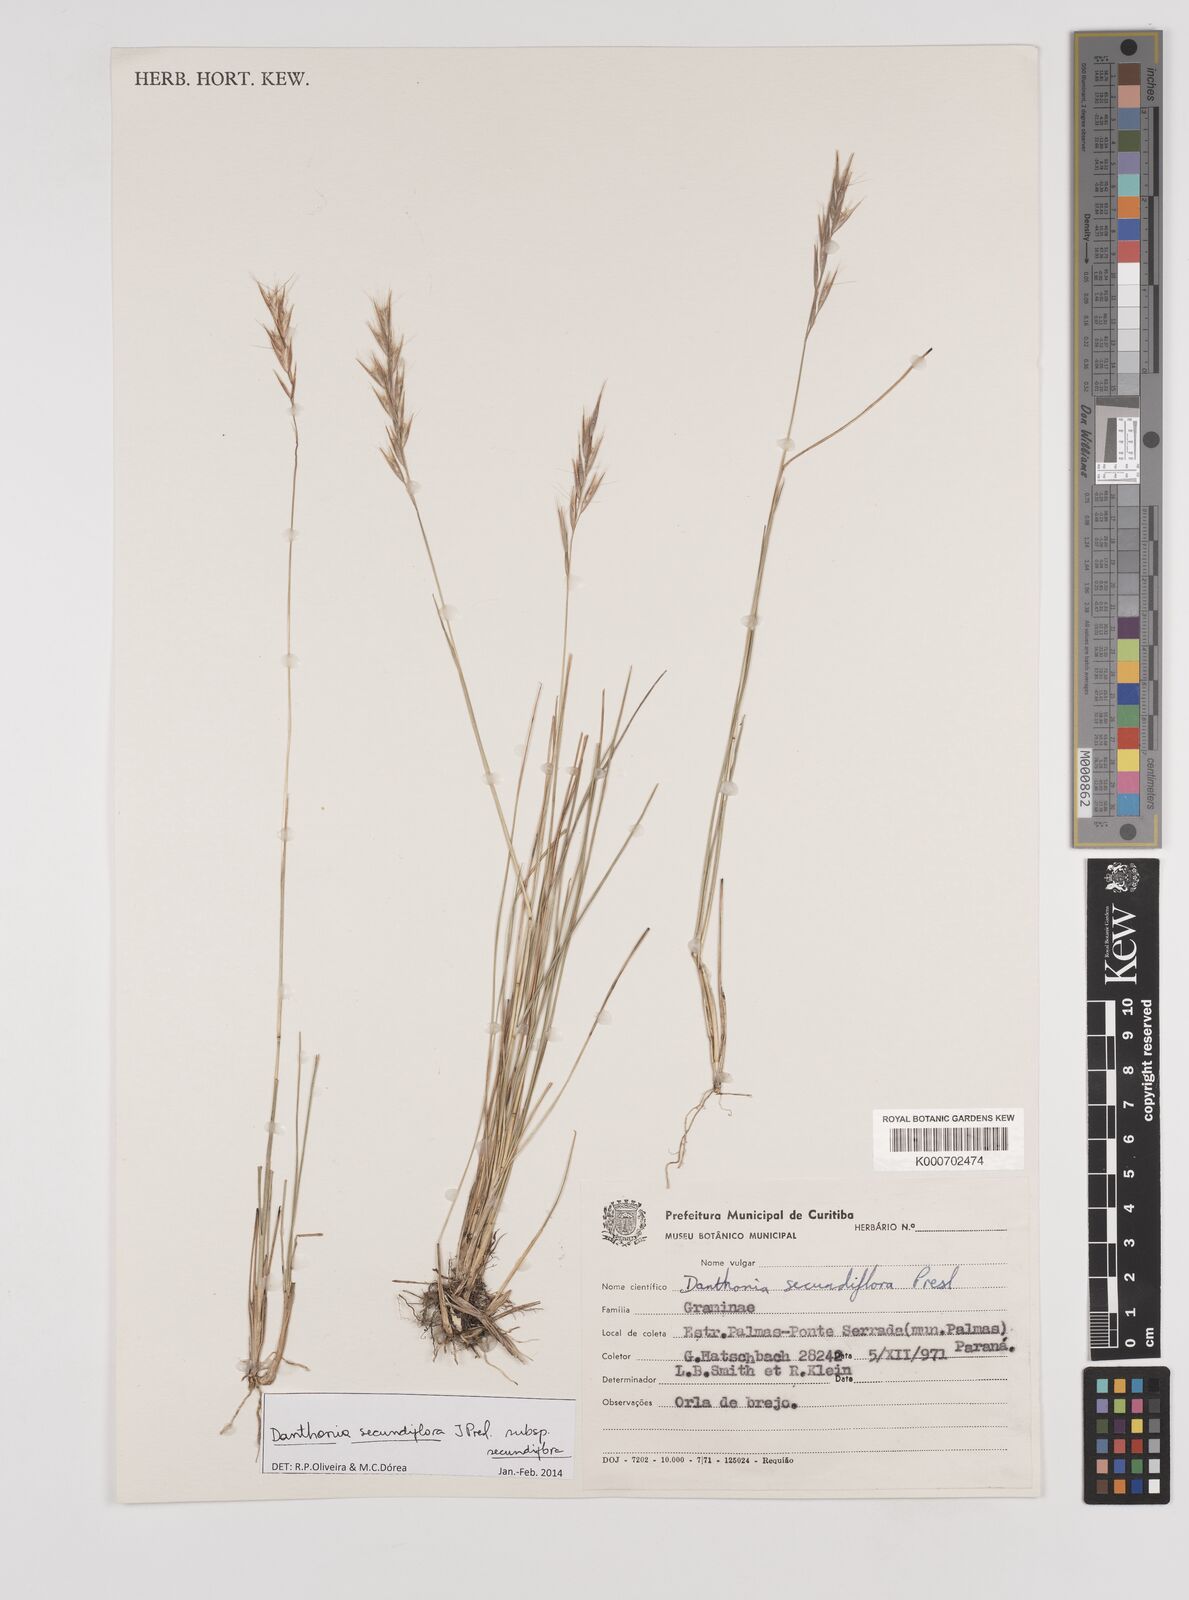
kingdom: Plantae
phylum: Tracheophyta
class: Liliopsida
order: Poales
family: Poaceae
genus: Danthonia
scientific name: Danthonia secundiflora
